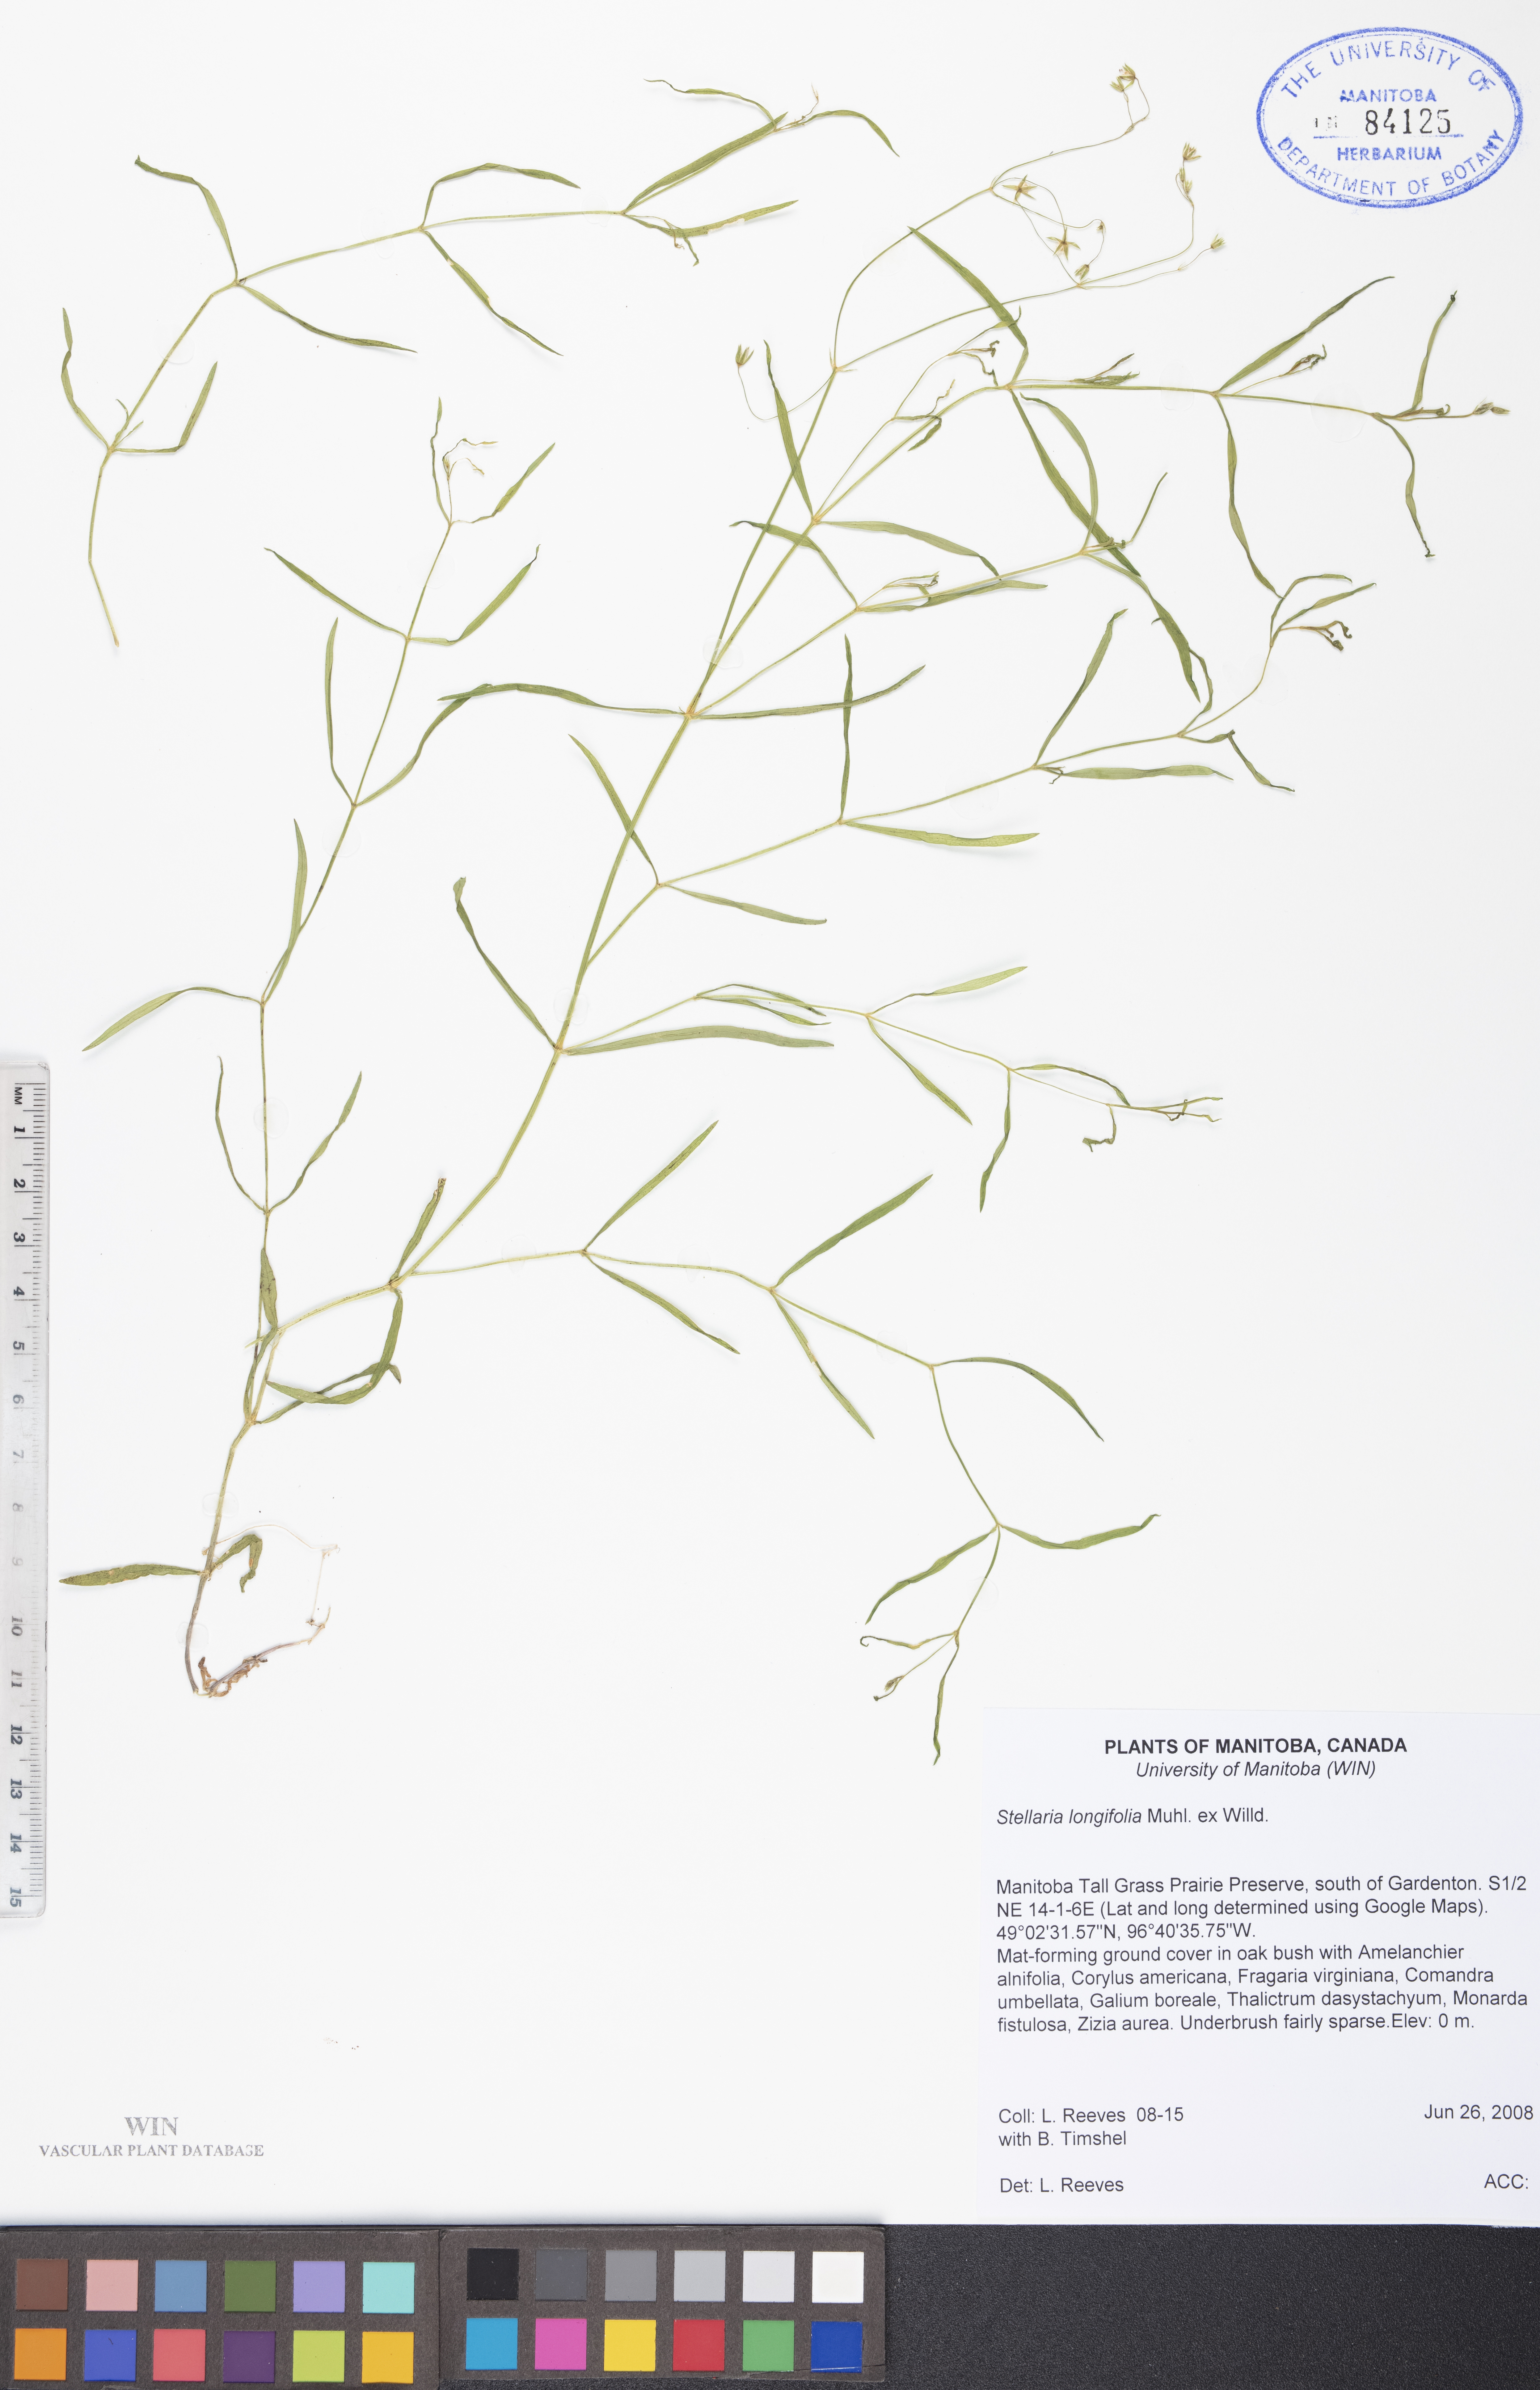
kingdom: Plantae
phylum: Tracheophyta
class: Magnoliopsida
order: Caryophyllales
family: Caryophyllaceae
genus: Stellaria
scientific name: Stellaria longifolia
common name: Long-leaved chickweed
